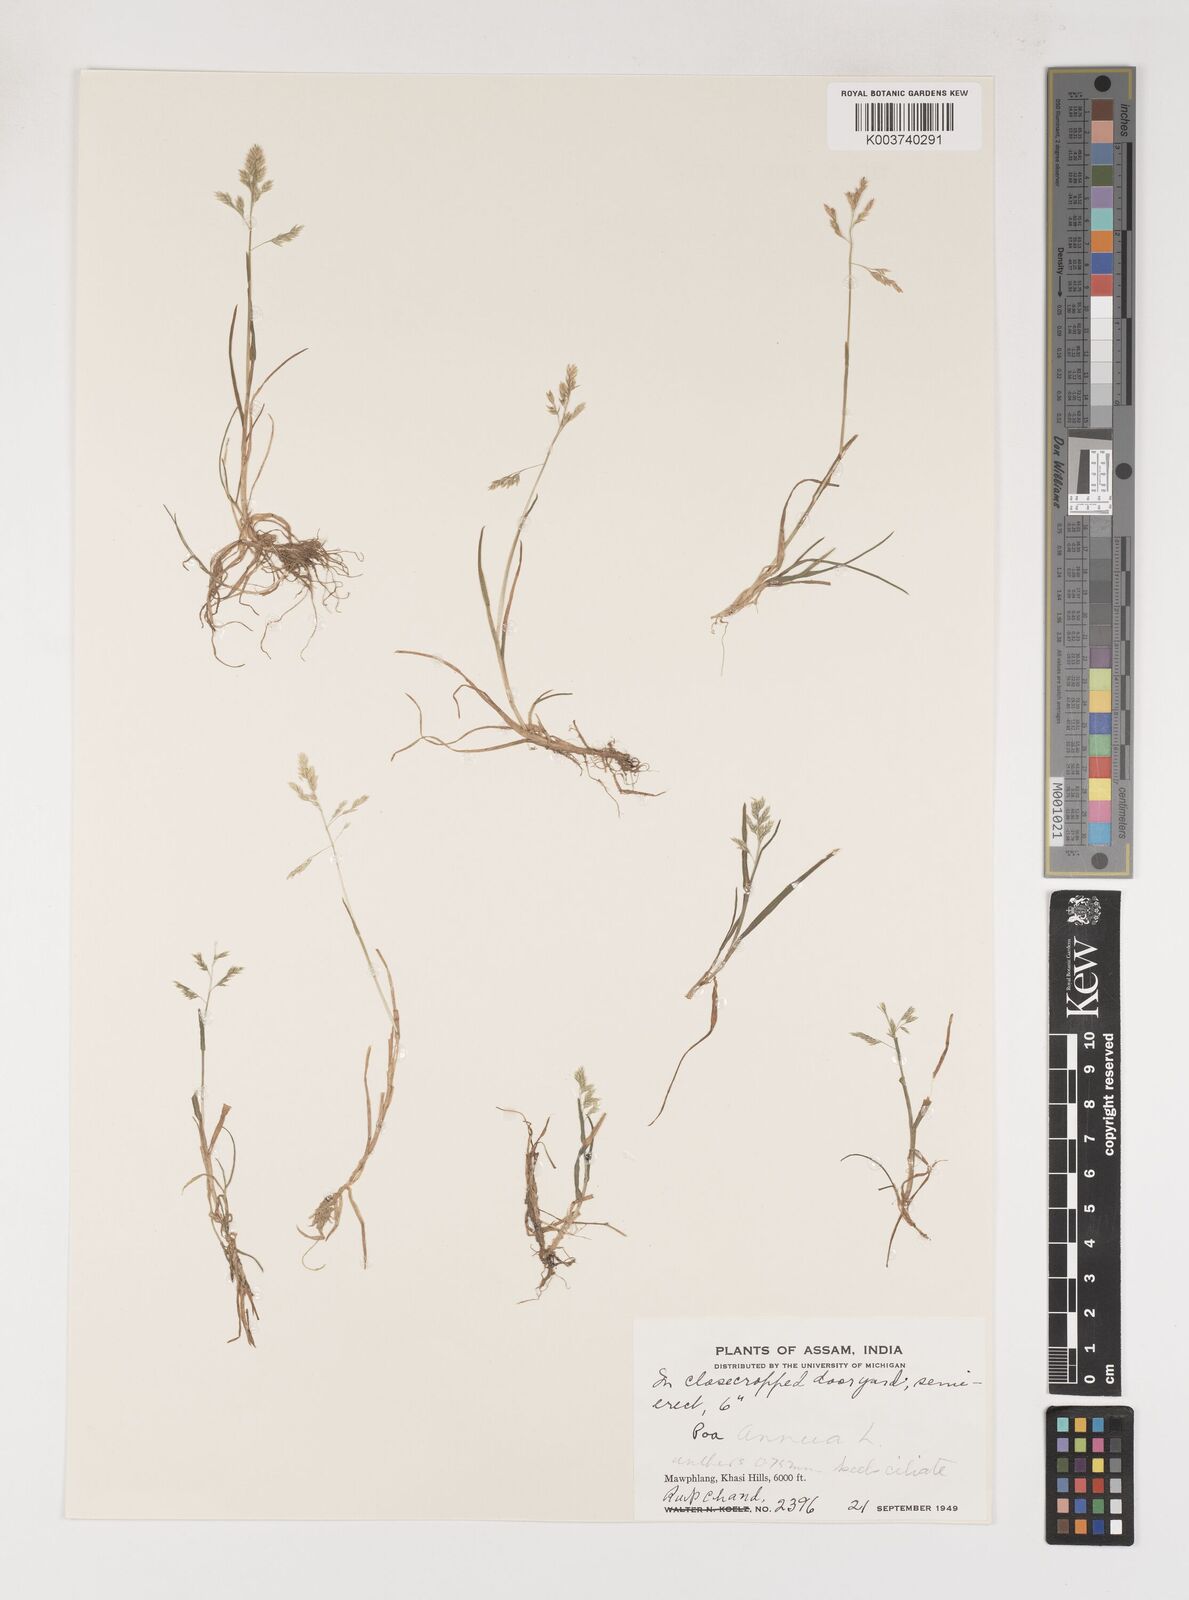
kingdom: Plantae
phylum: Tracheophyta
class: Liliopsida
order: Poales
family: Poaceae
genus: Poa
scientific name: Poa annua
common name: Annual bluegrass
